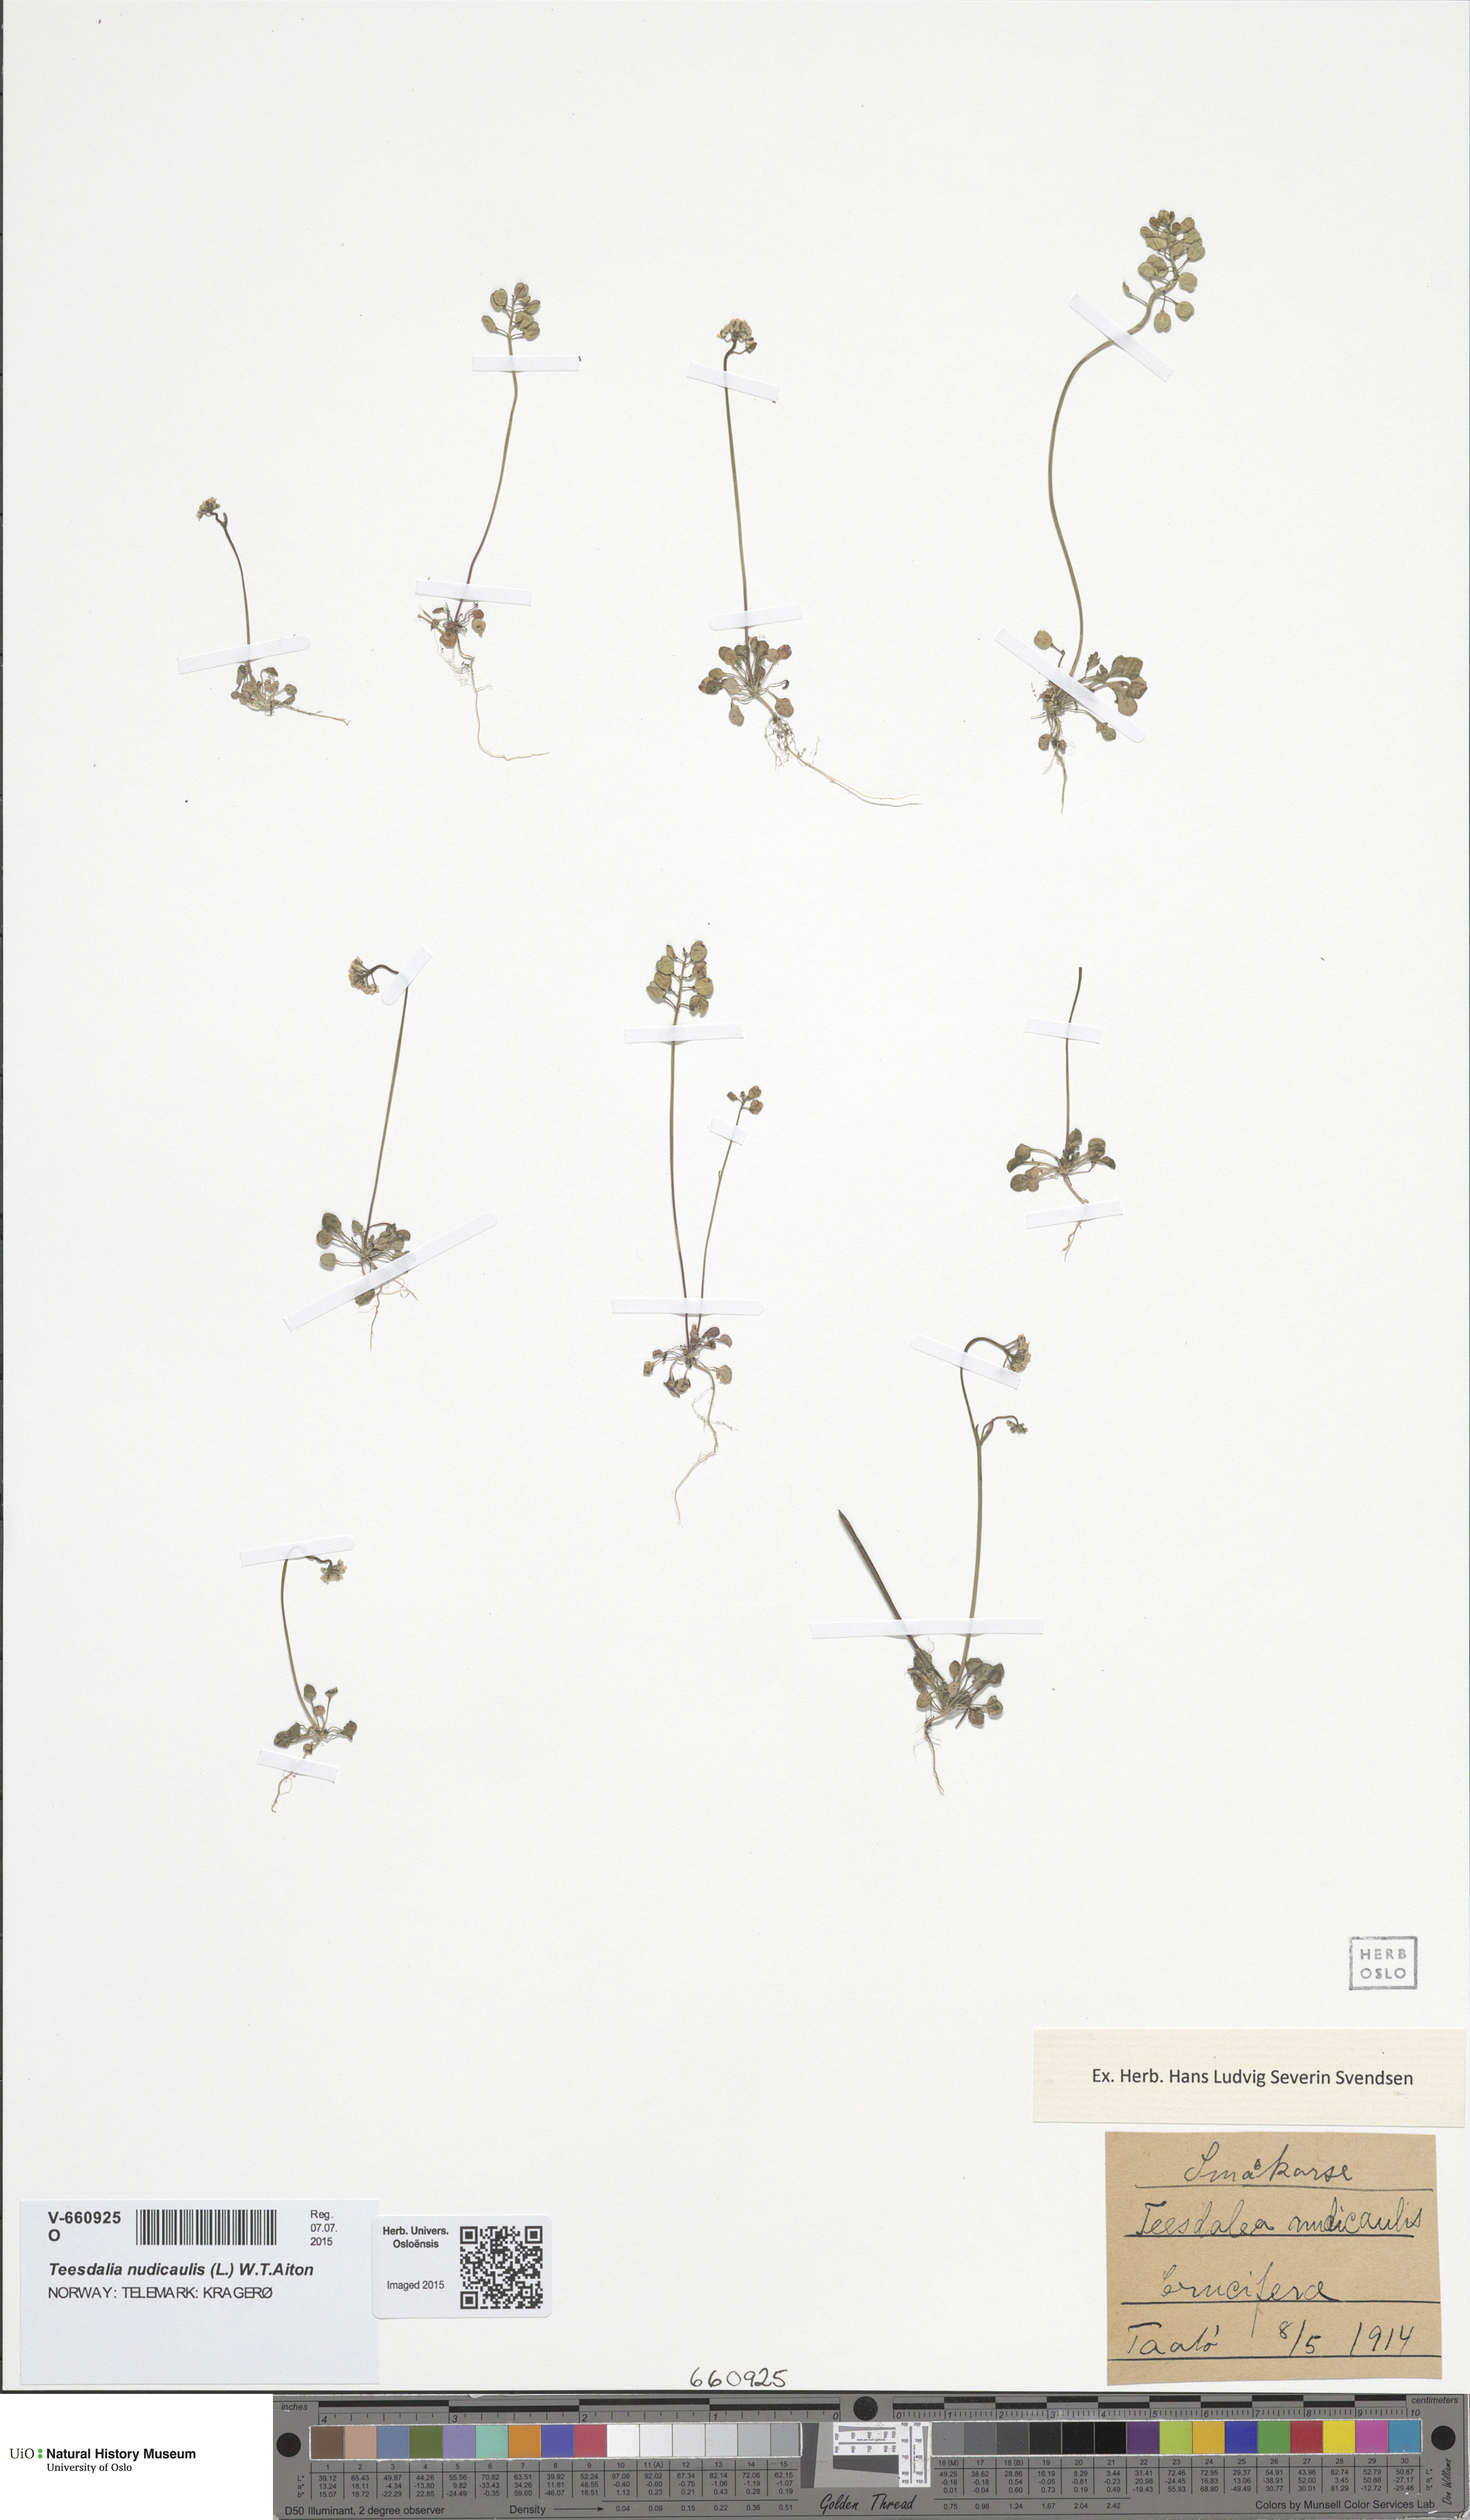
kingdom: Plantae
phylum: Tracheophyta
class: Magnoliopsida
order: Brassicales
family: Brassicaceae
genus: Teesdalia
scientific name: Teesdalia nudicaulis
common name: Shepherd's cress
